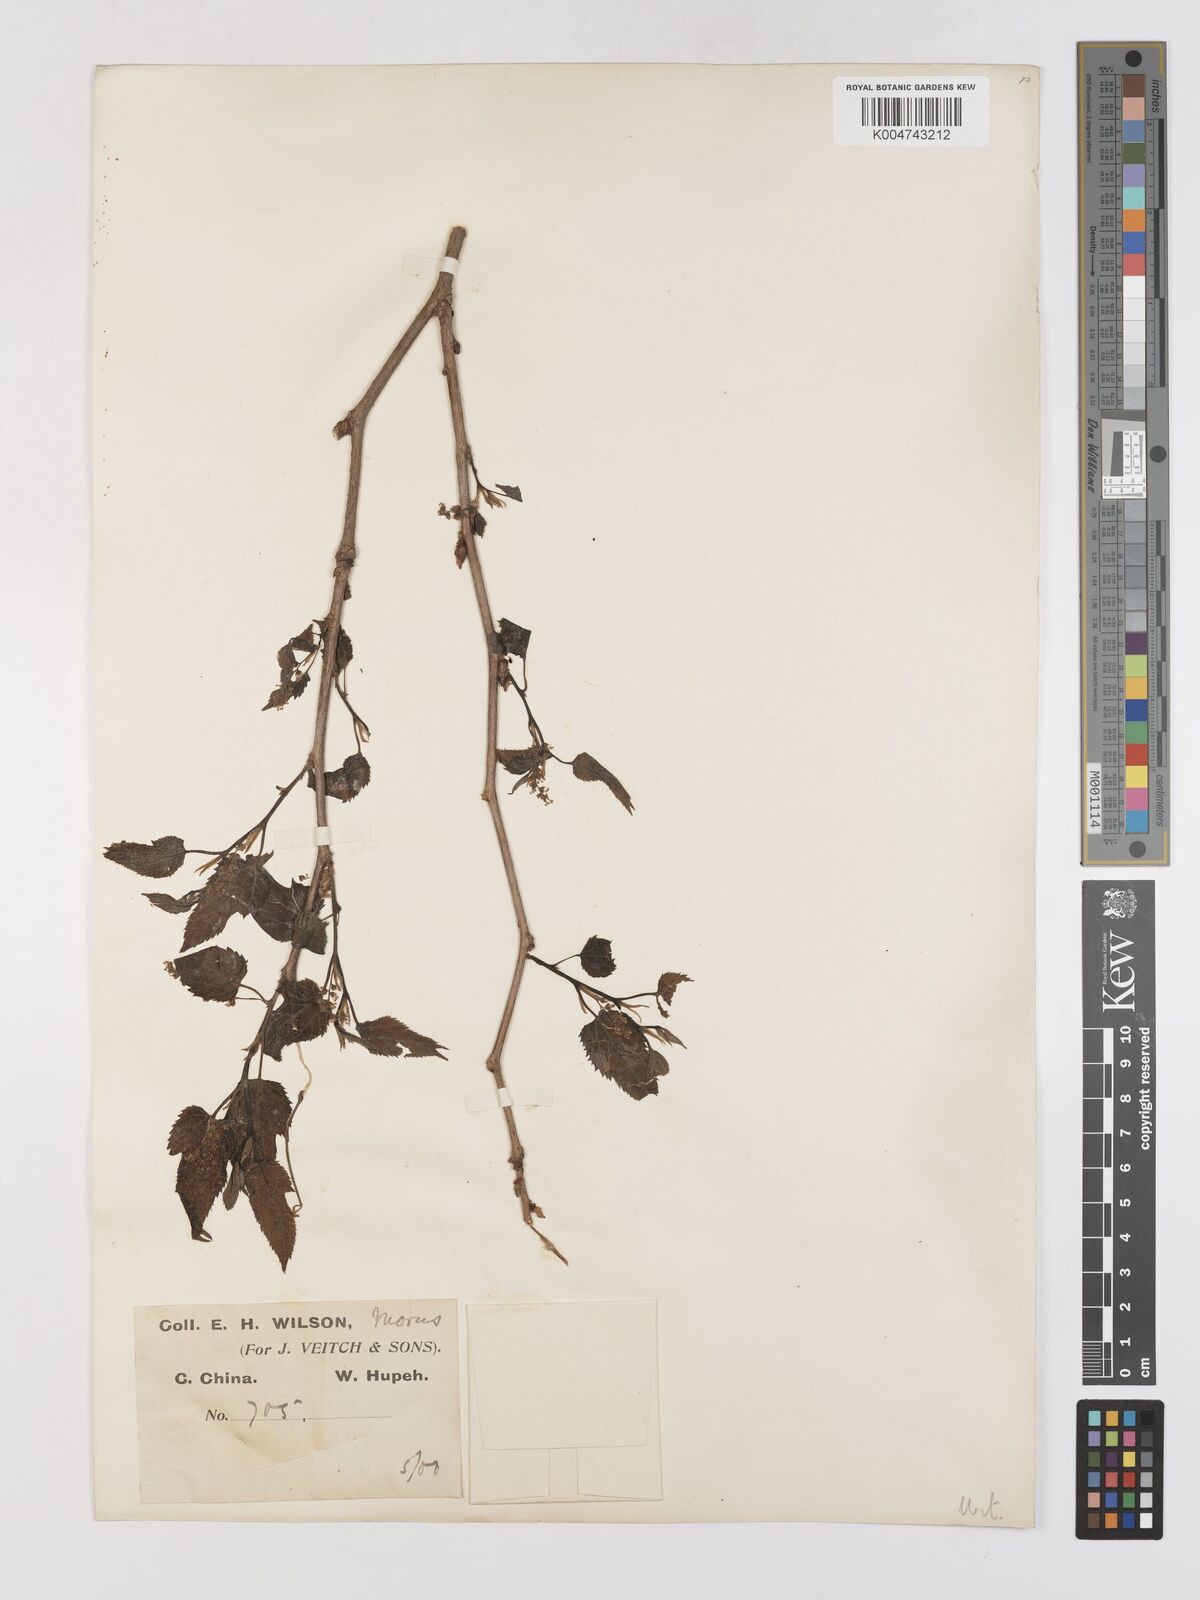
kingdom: Plantae
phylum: Tracheophyta
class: Magnoliopsida
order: Rosales
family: Moraceae
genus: Morus
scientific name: Morus indica
